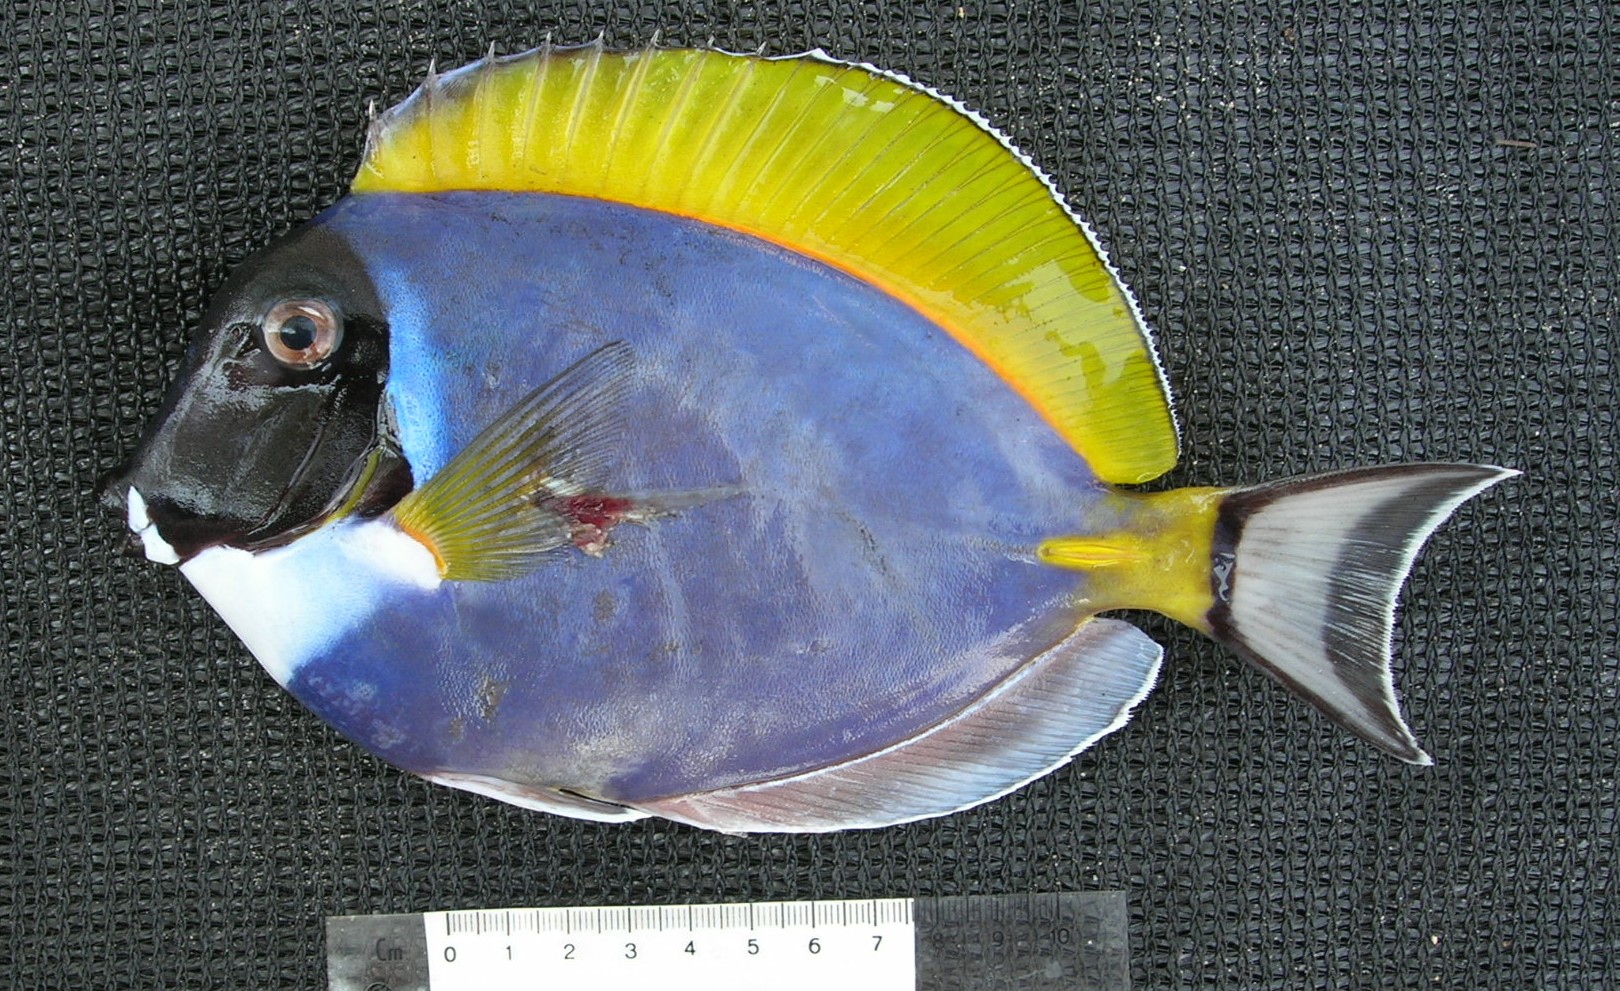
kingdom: Animalia
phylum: Chordata
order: Perciformes
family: Acanthuridae
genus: Acanthurus
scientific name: Acanthurus leucosternon
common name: Blue surgeonfish
